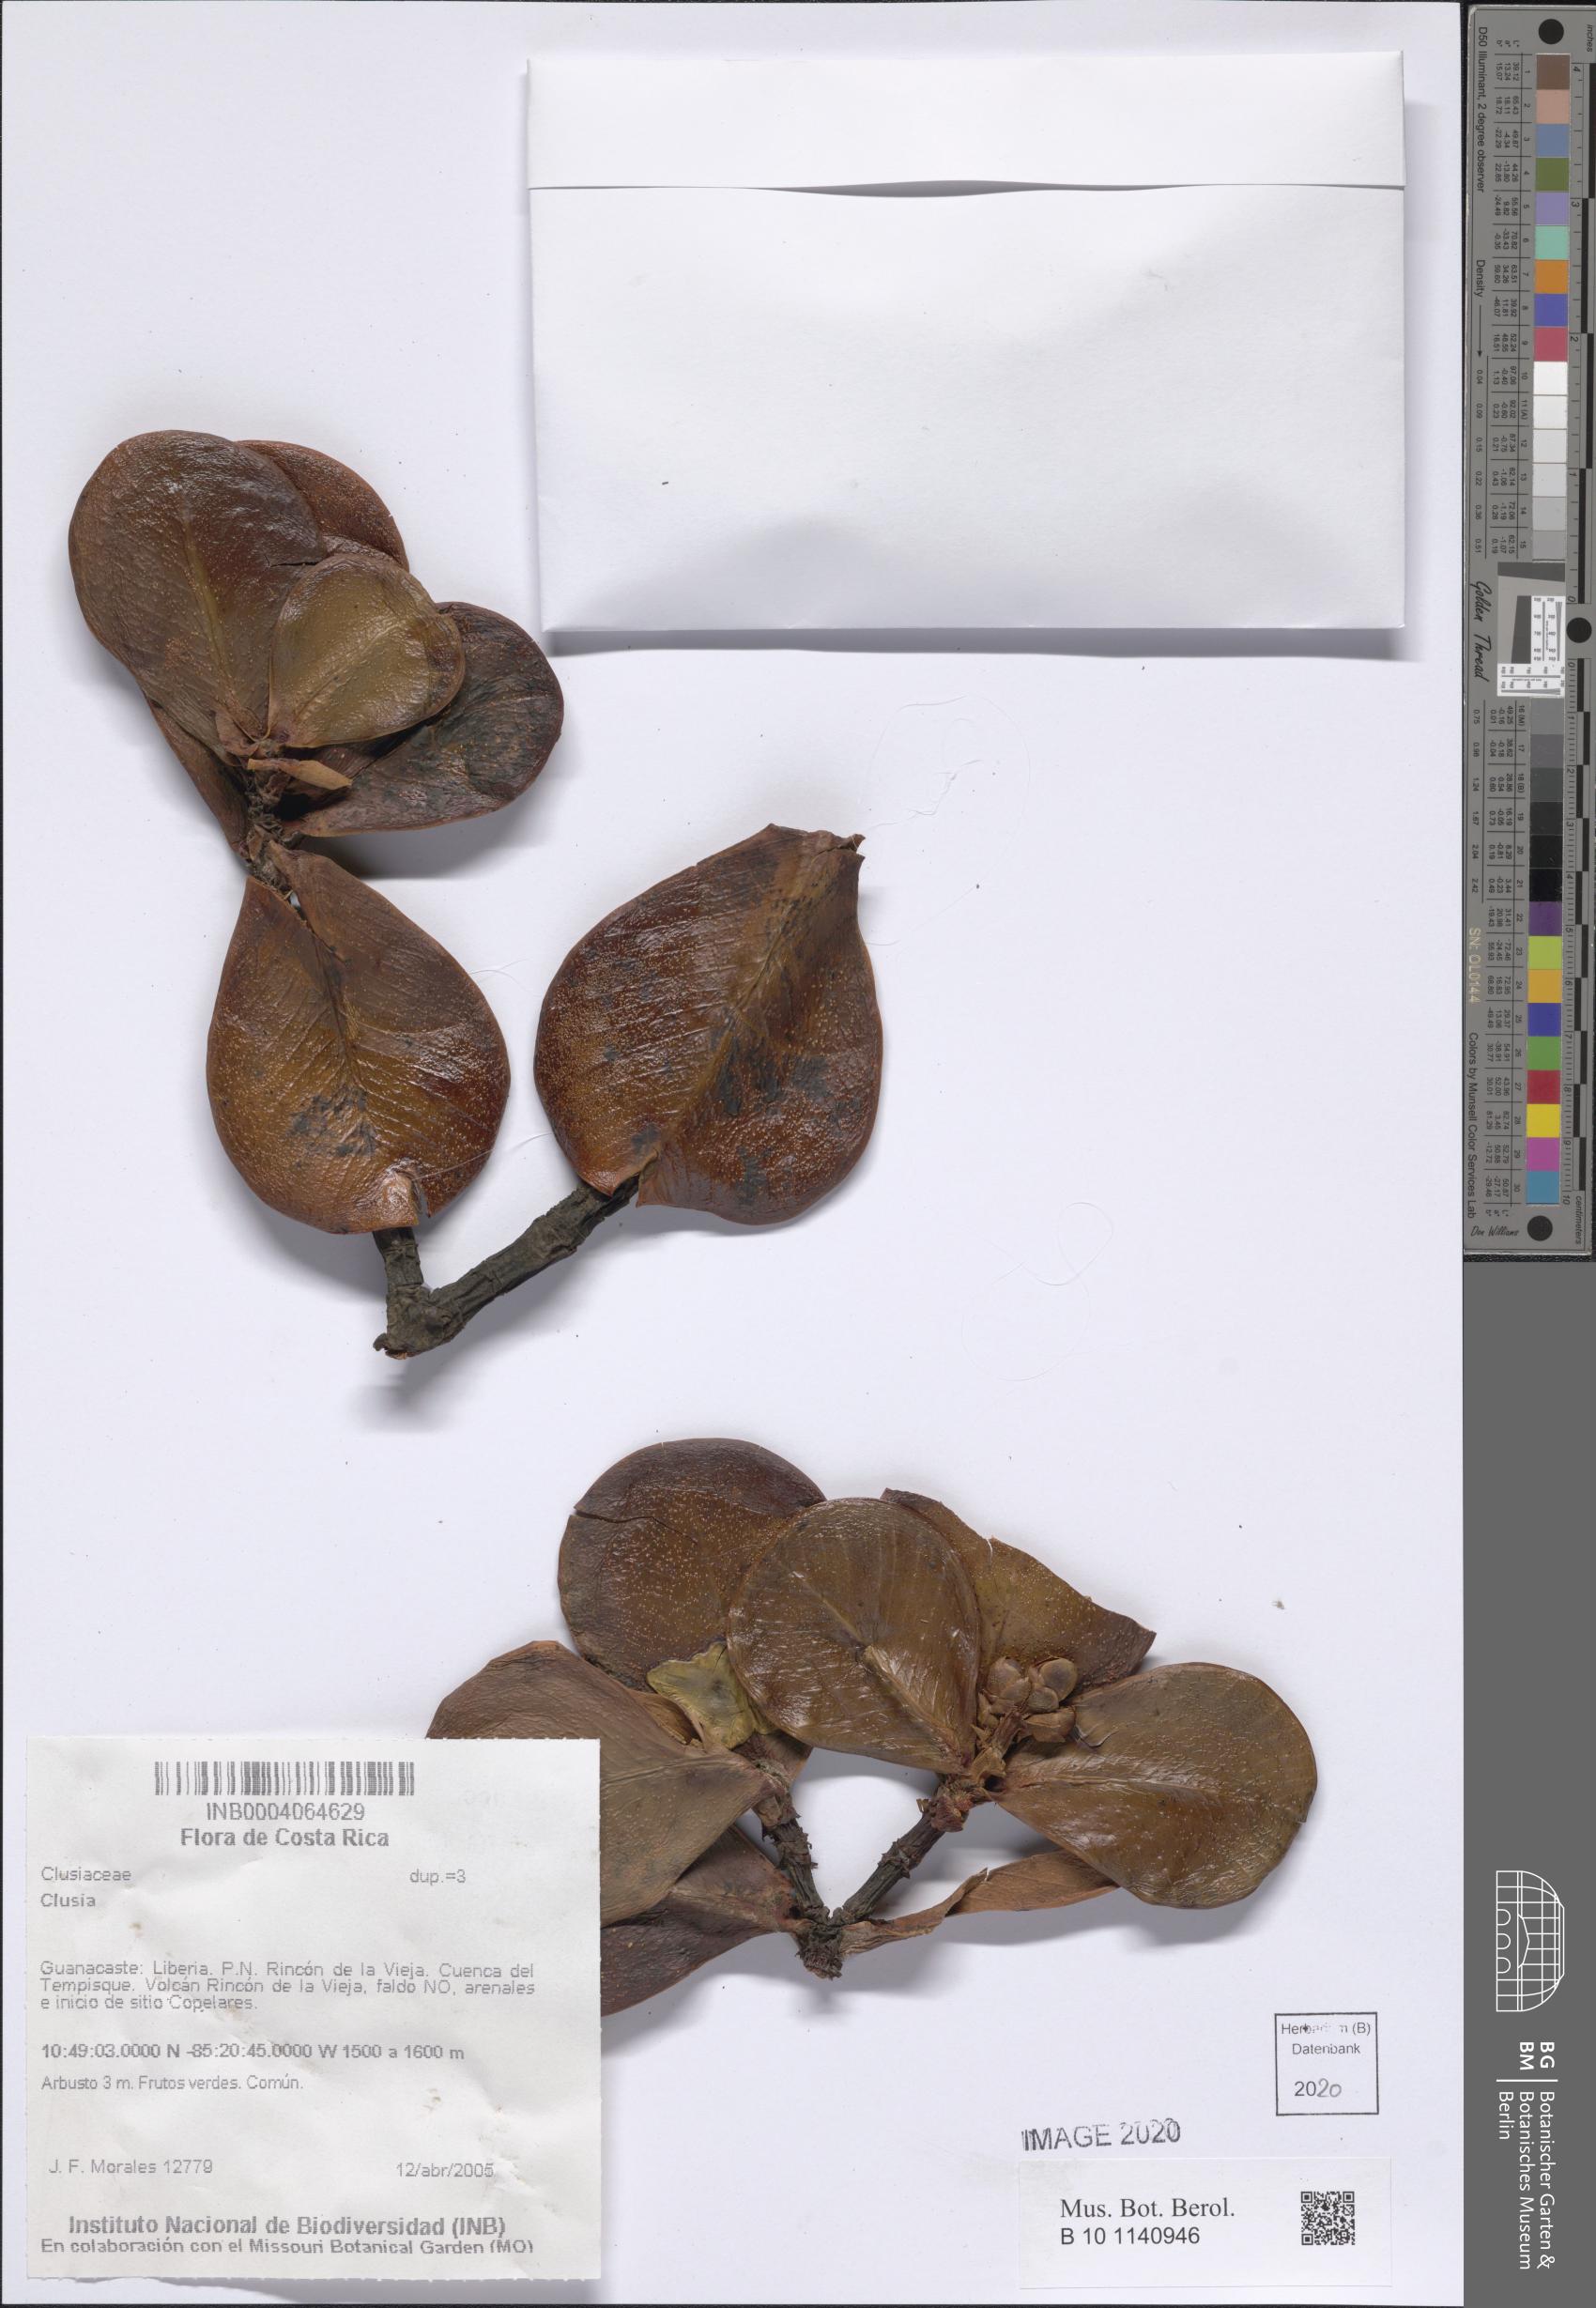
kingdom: Plantae
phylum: Tracheophyta
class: Magnoliopsida
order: Malpighiales
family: Clusiaceae
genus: Clusia
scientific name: Clusia
